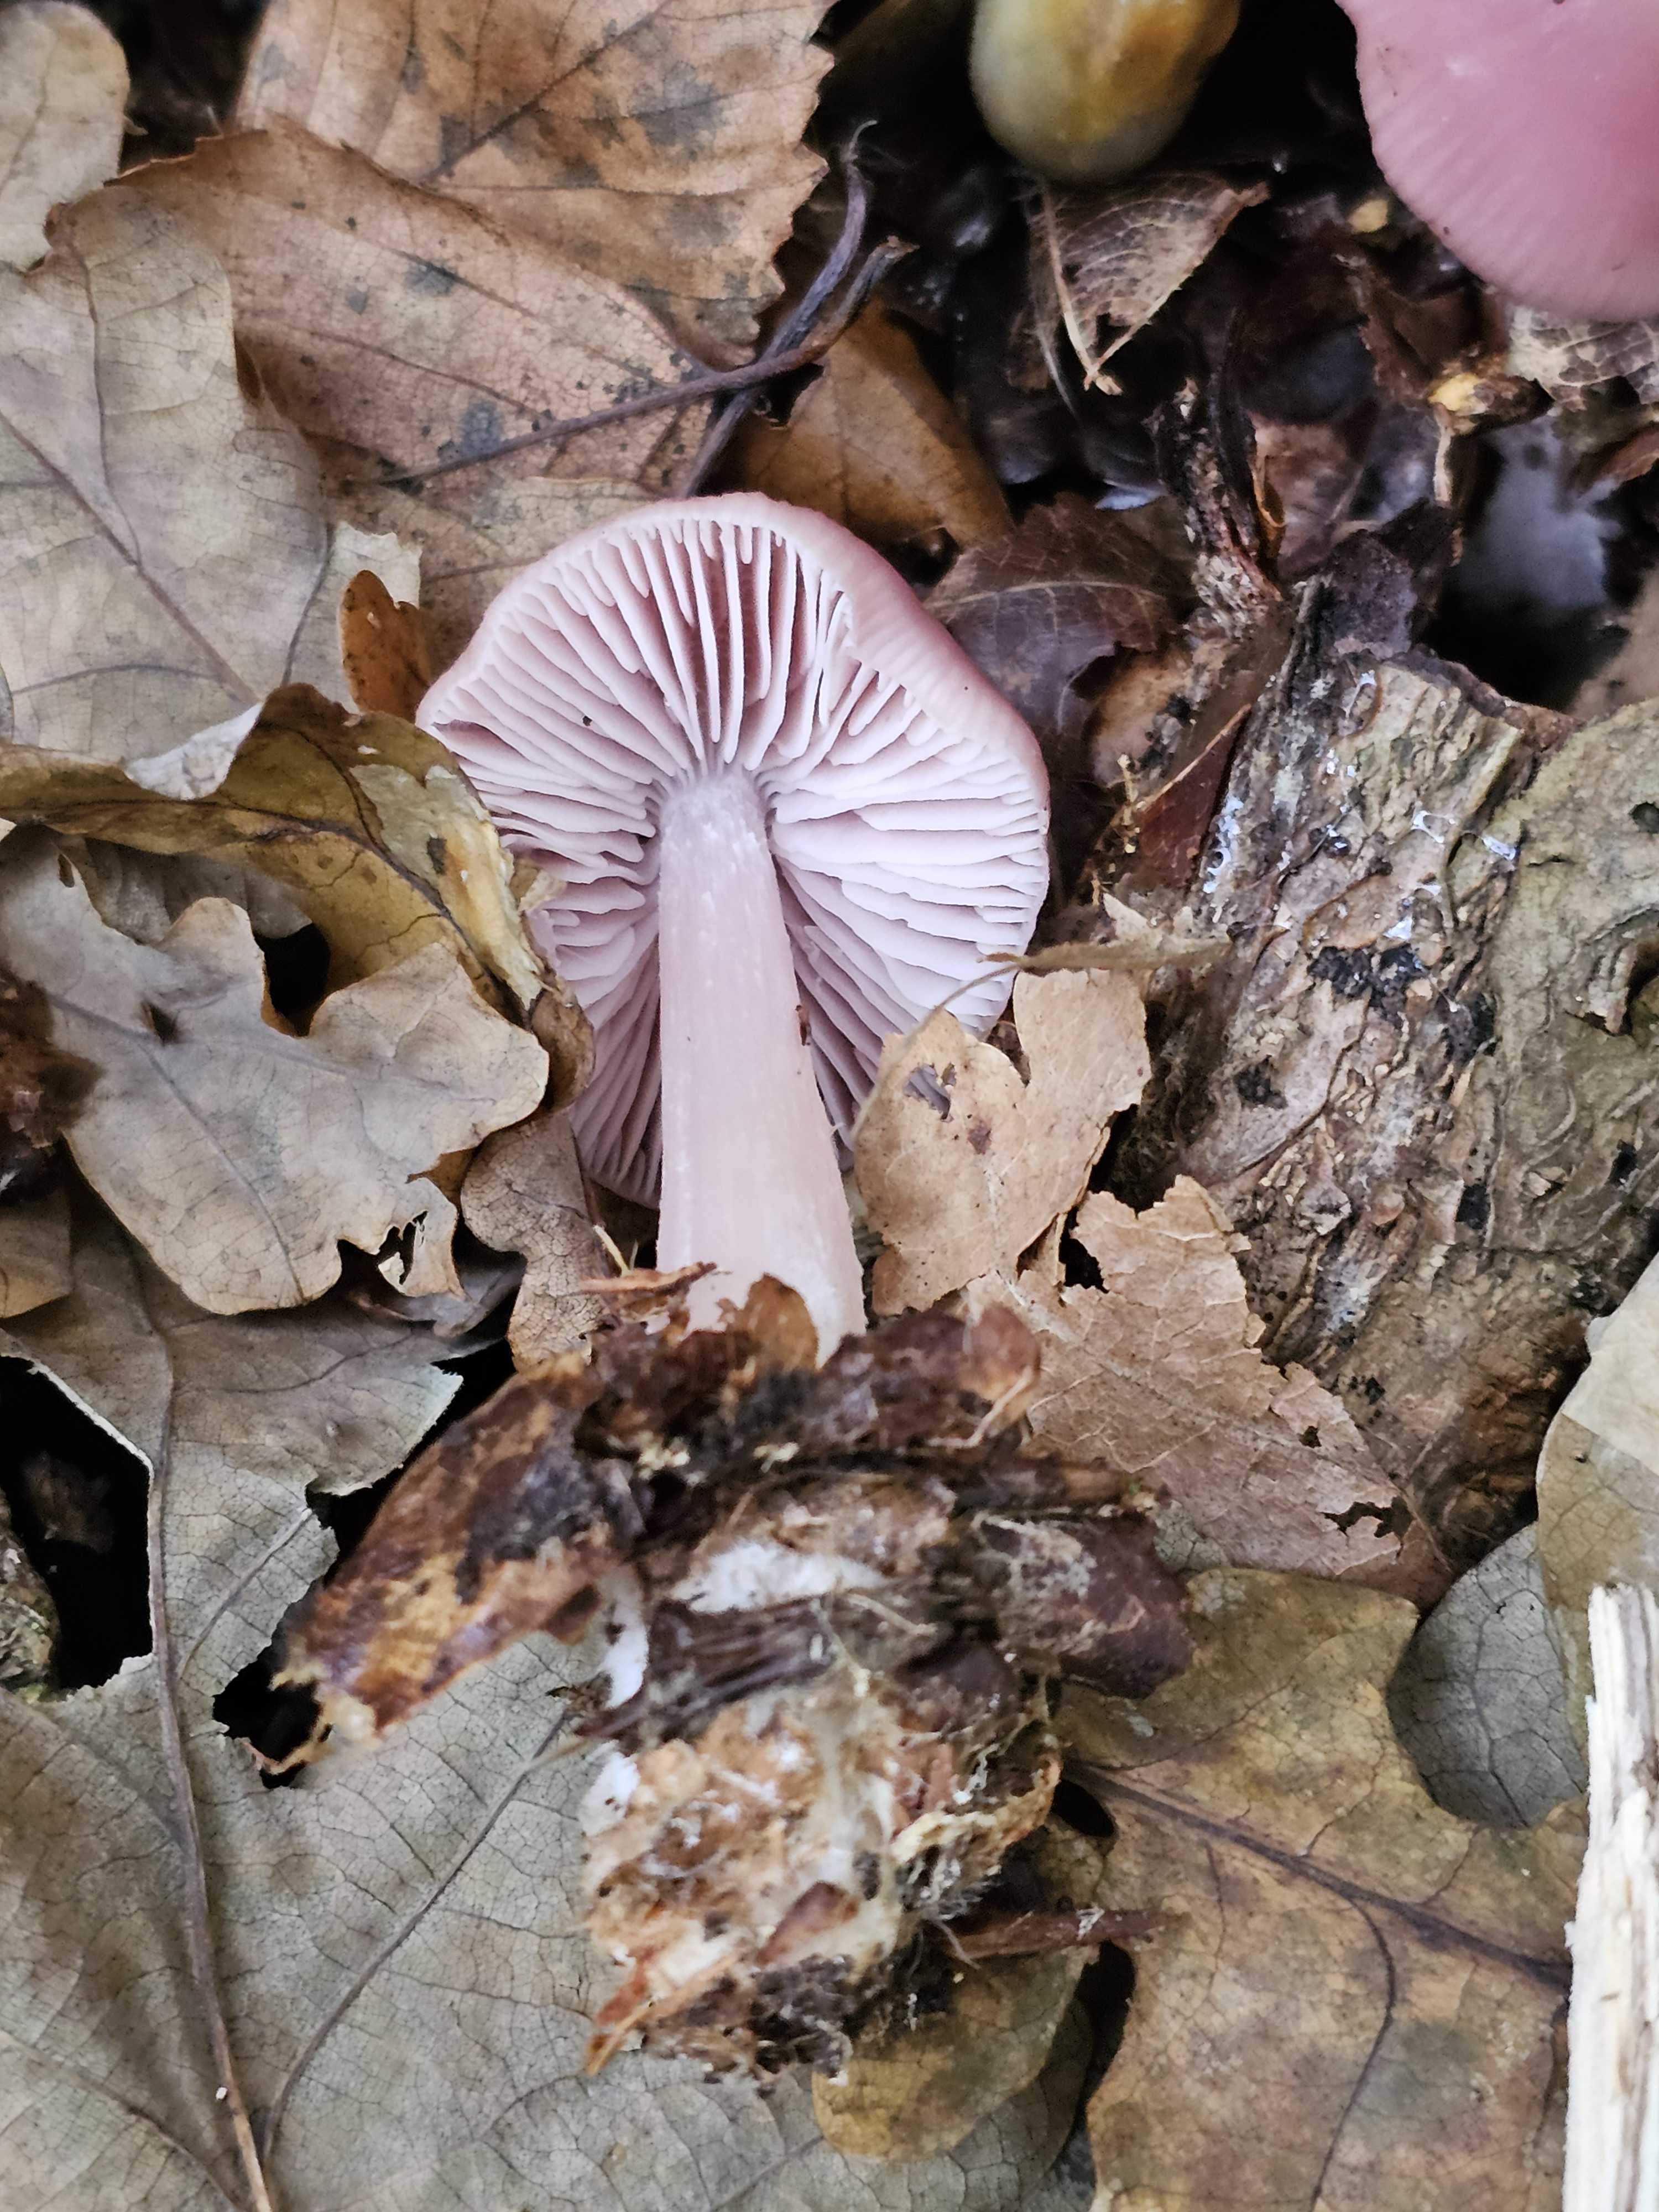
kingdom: Fungi
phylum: Basidiomycota
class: Agaricomycetes
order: Agaricales
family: Mycenaceae
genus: Mycena
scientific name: Mycena rosea
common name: rosa huesvamp
